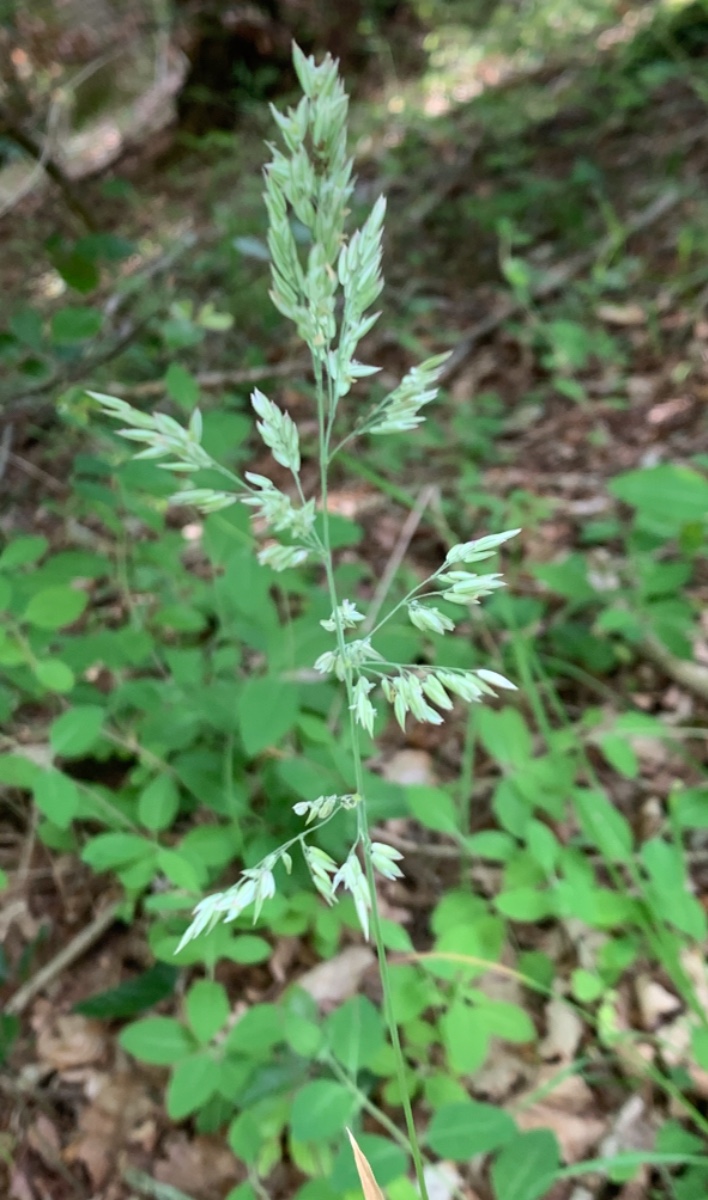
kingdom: Fungi
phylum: Ascomycota
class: Sordariomycetes
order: Hypocreales
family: Clavicipitaceae
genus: Epichloe
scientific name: Epichloe clarkii
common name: fløjlsgræs-kernerør
